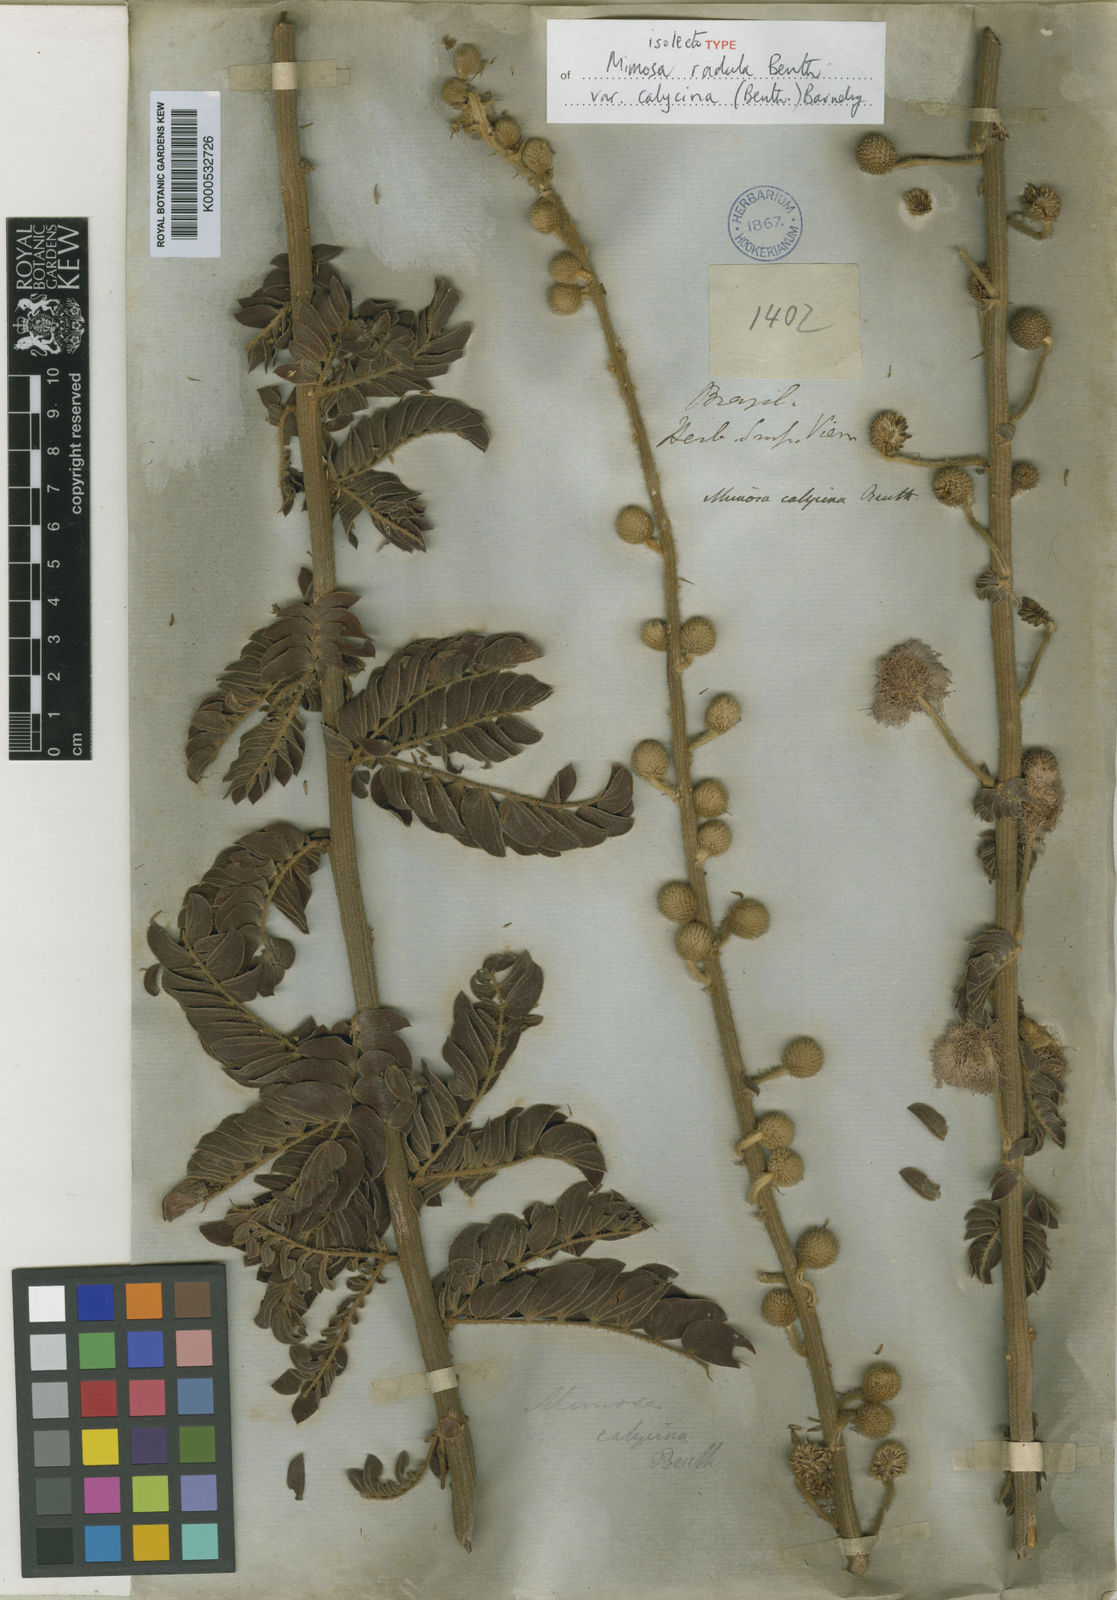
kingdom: Plantae
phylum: Tracheophyta
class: Magnoliopsida
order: Fabales
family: Fabaceae
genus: Mimosa
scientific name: Mimosa radula
